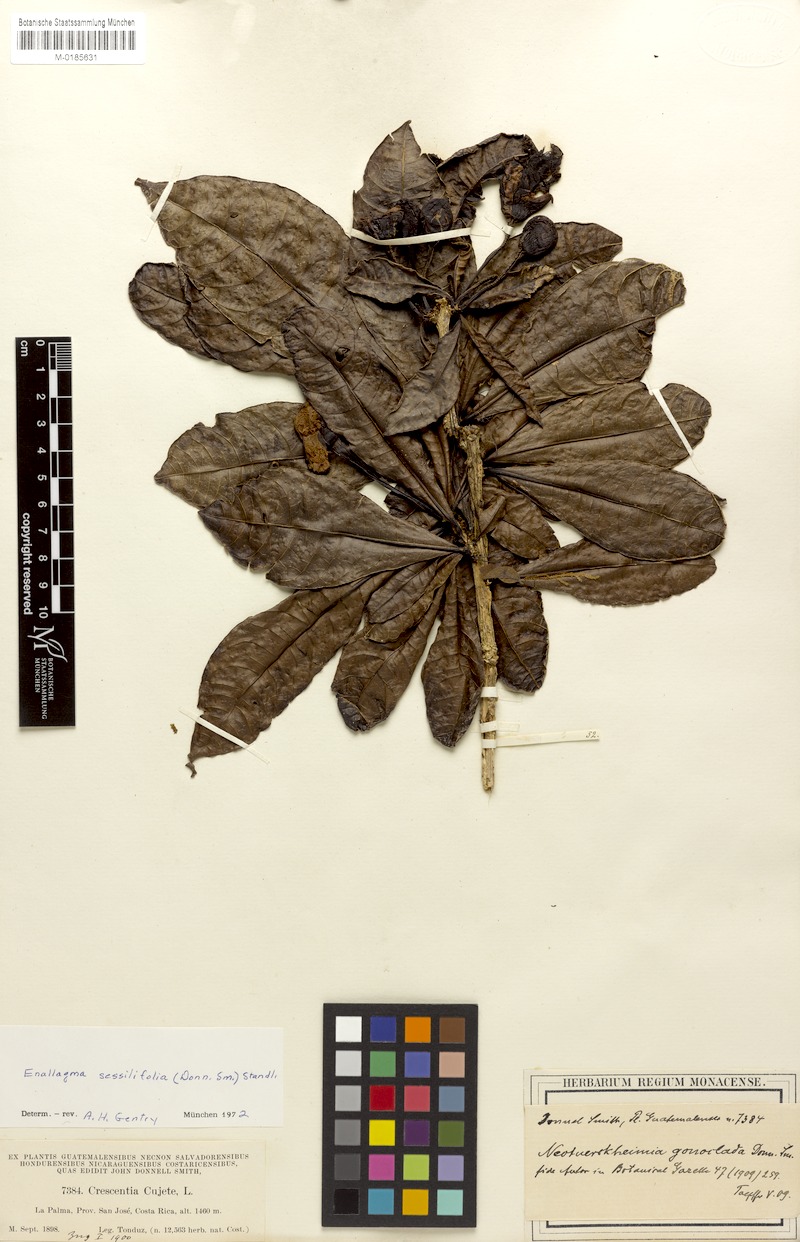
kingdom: Plantae
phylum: Tracheophyta
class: Magnoliopsida
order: Lamiales
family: Bignoniaceae
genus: Amphitecna
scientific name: Amphitecna sessilifolia
